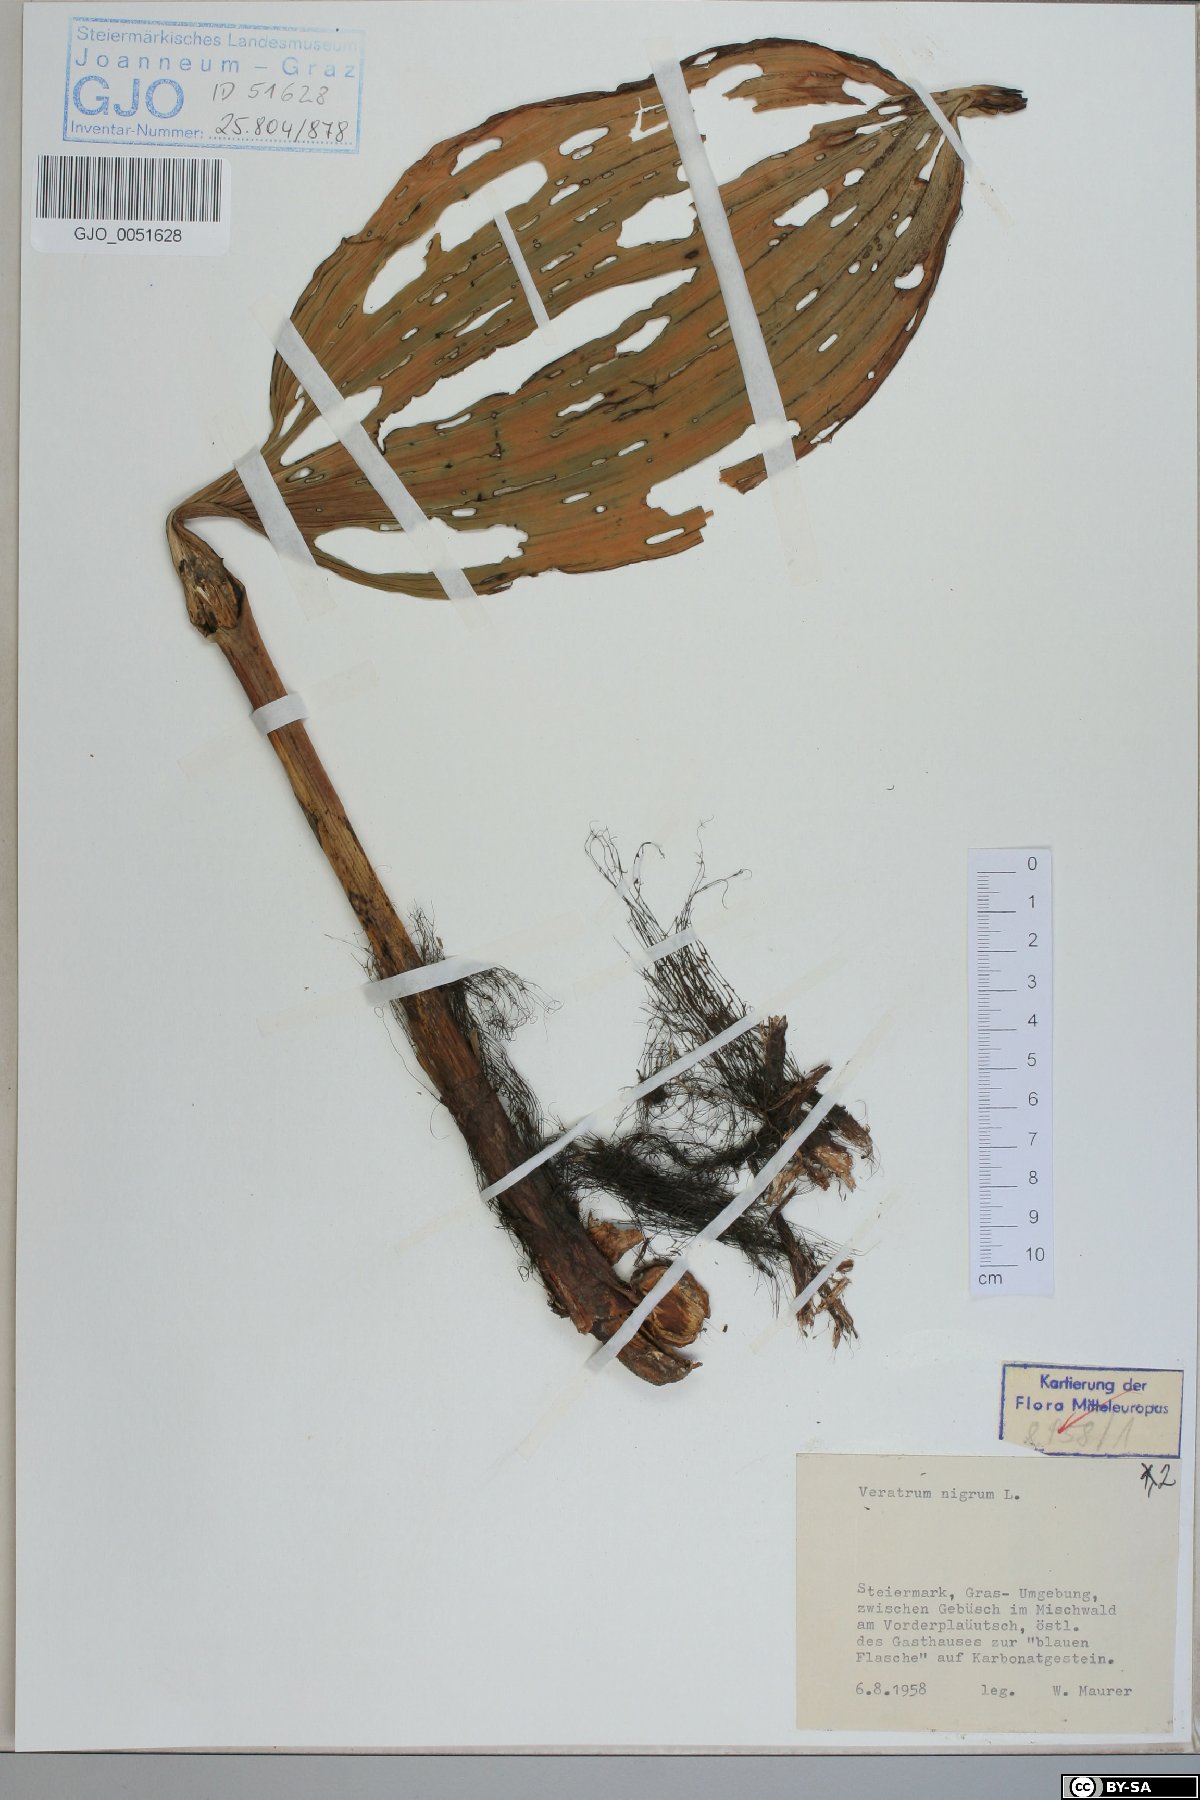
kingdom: Plantae
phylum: Tracheophyta
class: Liliopsida
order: Liliales
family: Melanthiaceae
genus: Veratrum
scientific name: Veratrum nigrum
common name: Black veratrum
